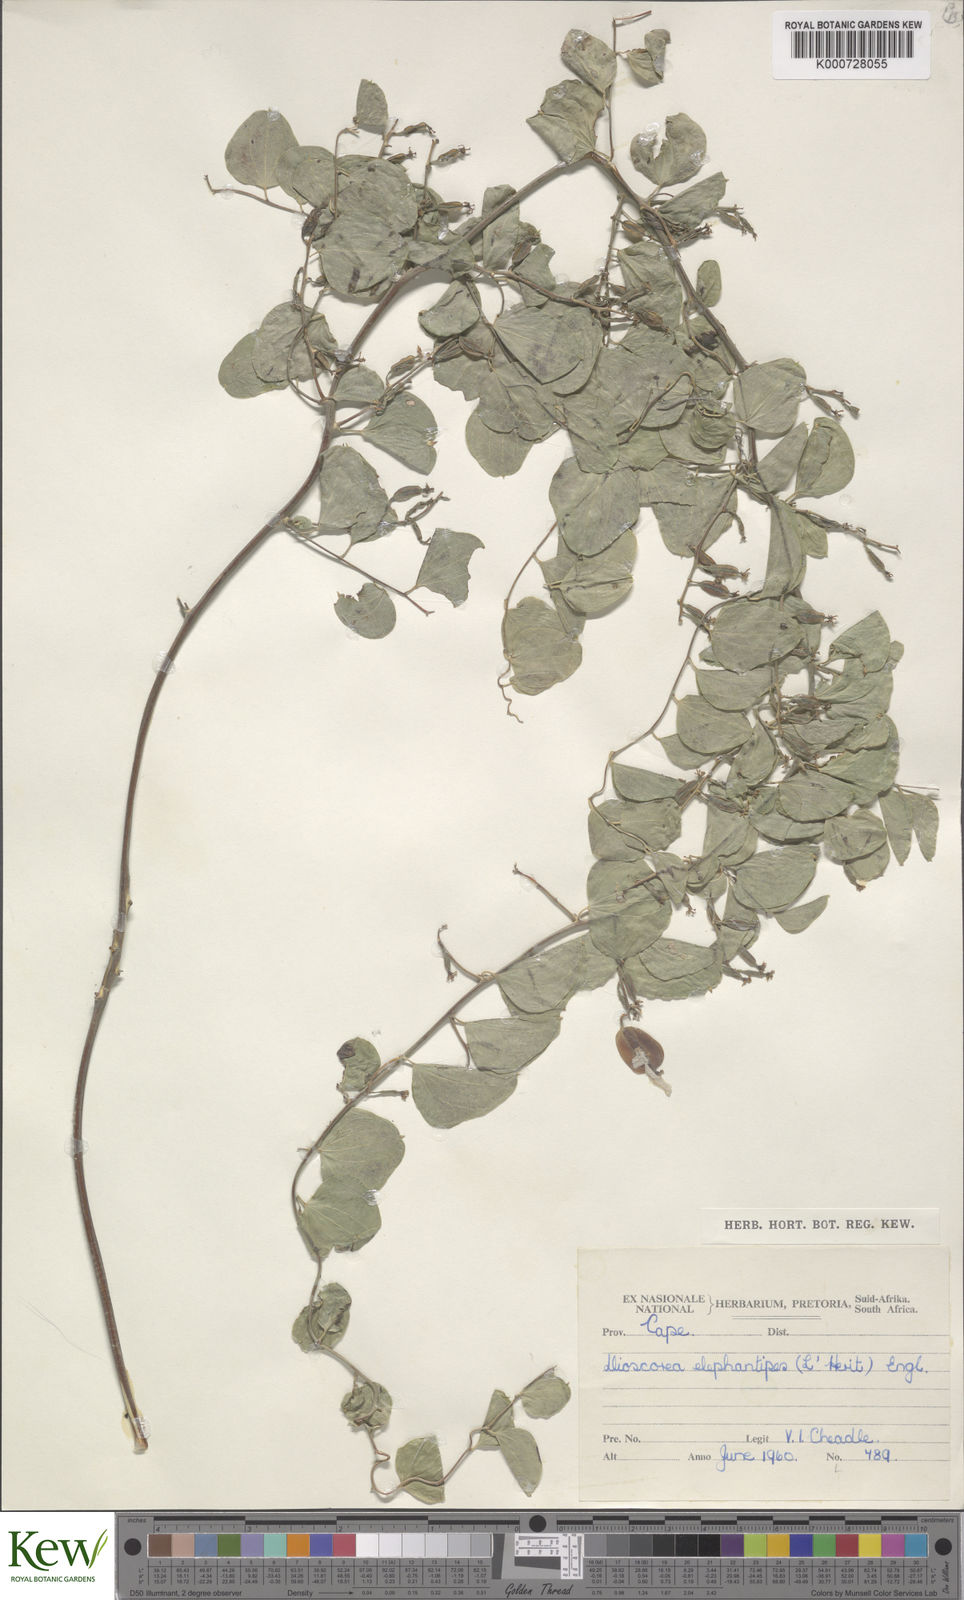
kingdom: Plantae
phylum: Tracheophyta
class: Liliopsida
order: Dioscoreales
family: Dioscoreaceae
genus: Dioscorea
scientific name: Dioscorea
